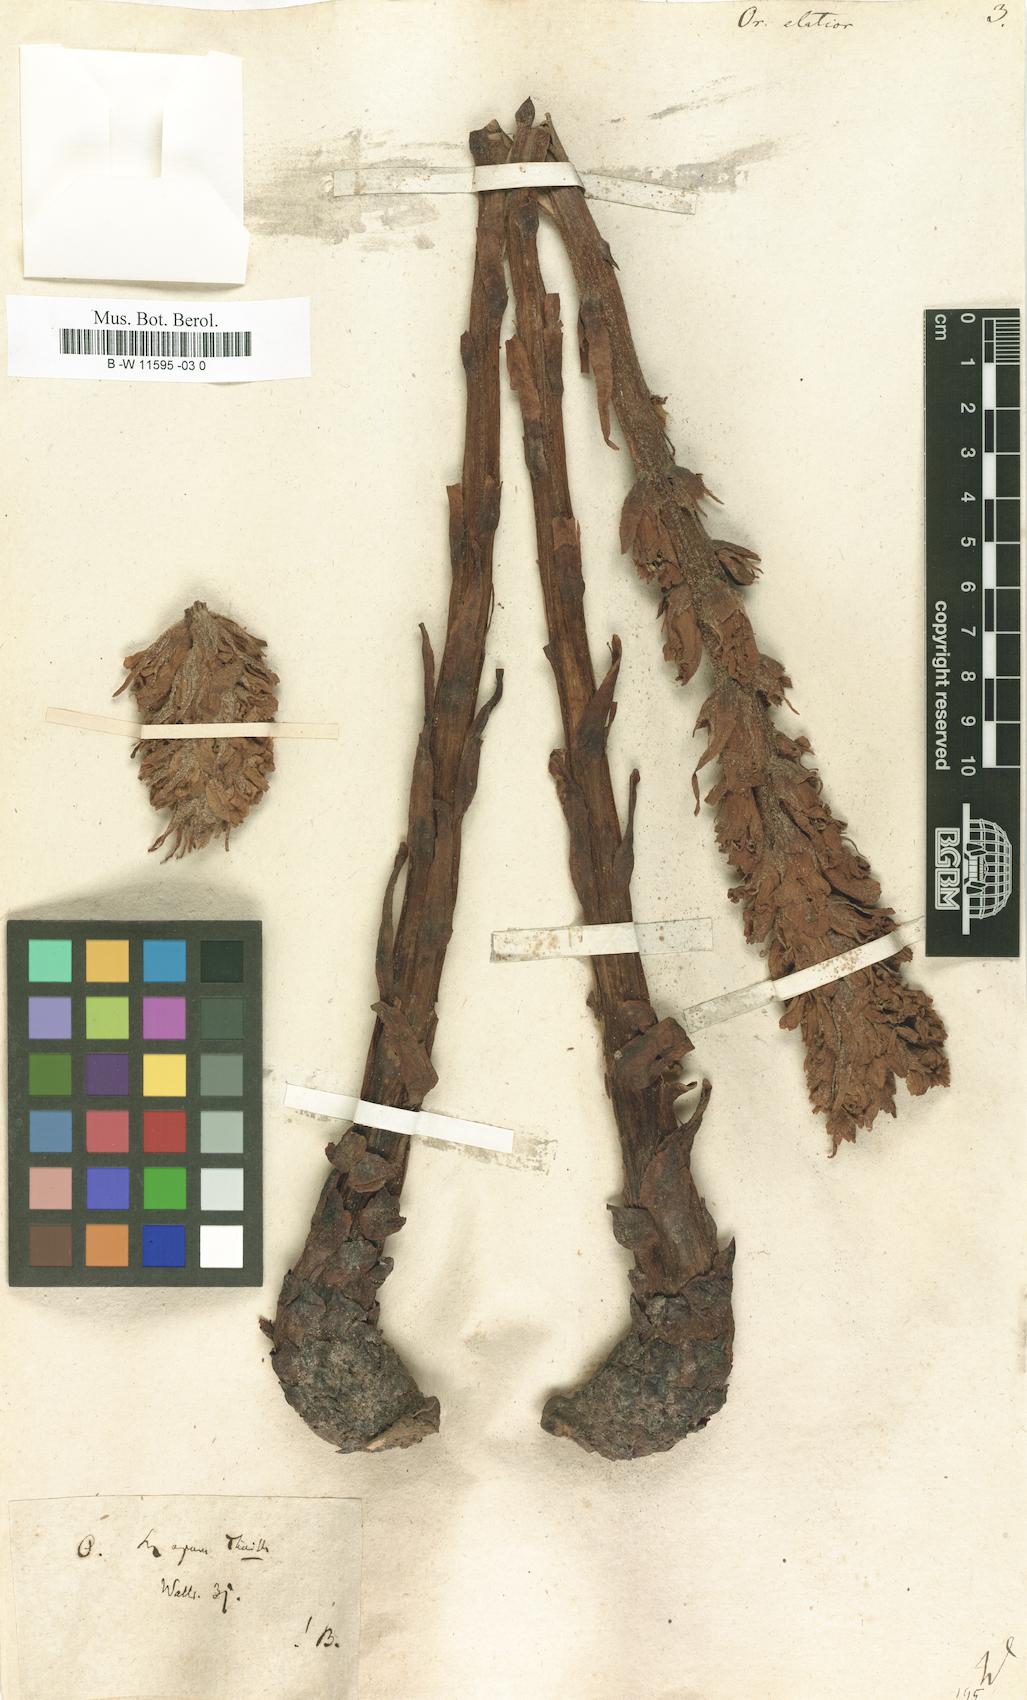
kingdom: Plantae
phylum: Tracheophyta
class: Magnoliopsida
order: Lamiales
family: Orobanchaceae
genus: Orobanche
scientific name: Orobanche elatior
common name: Knapweed broomrape
